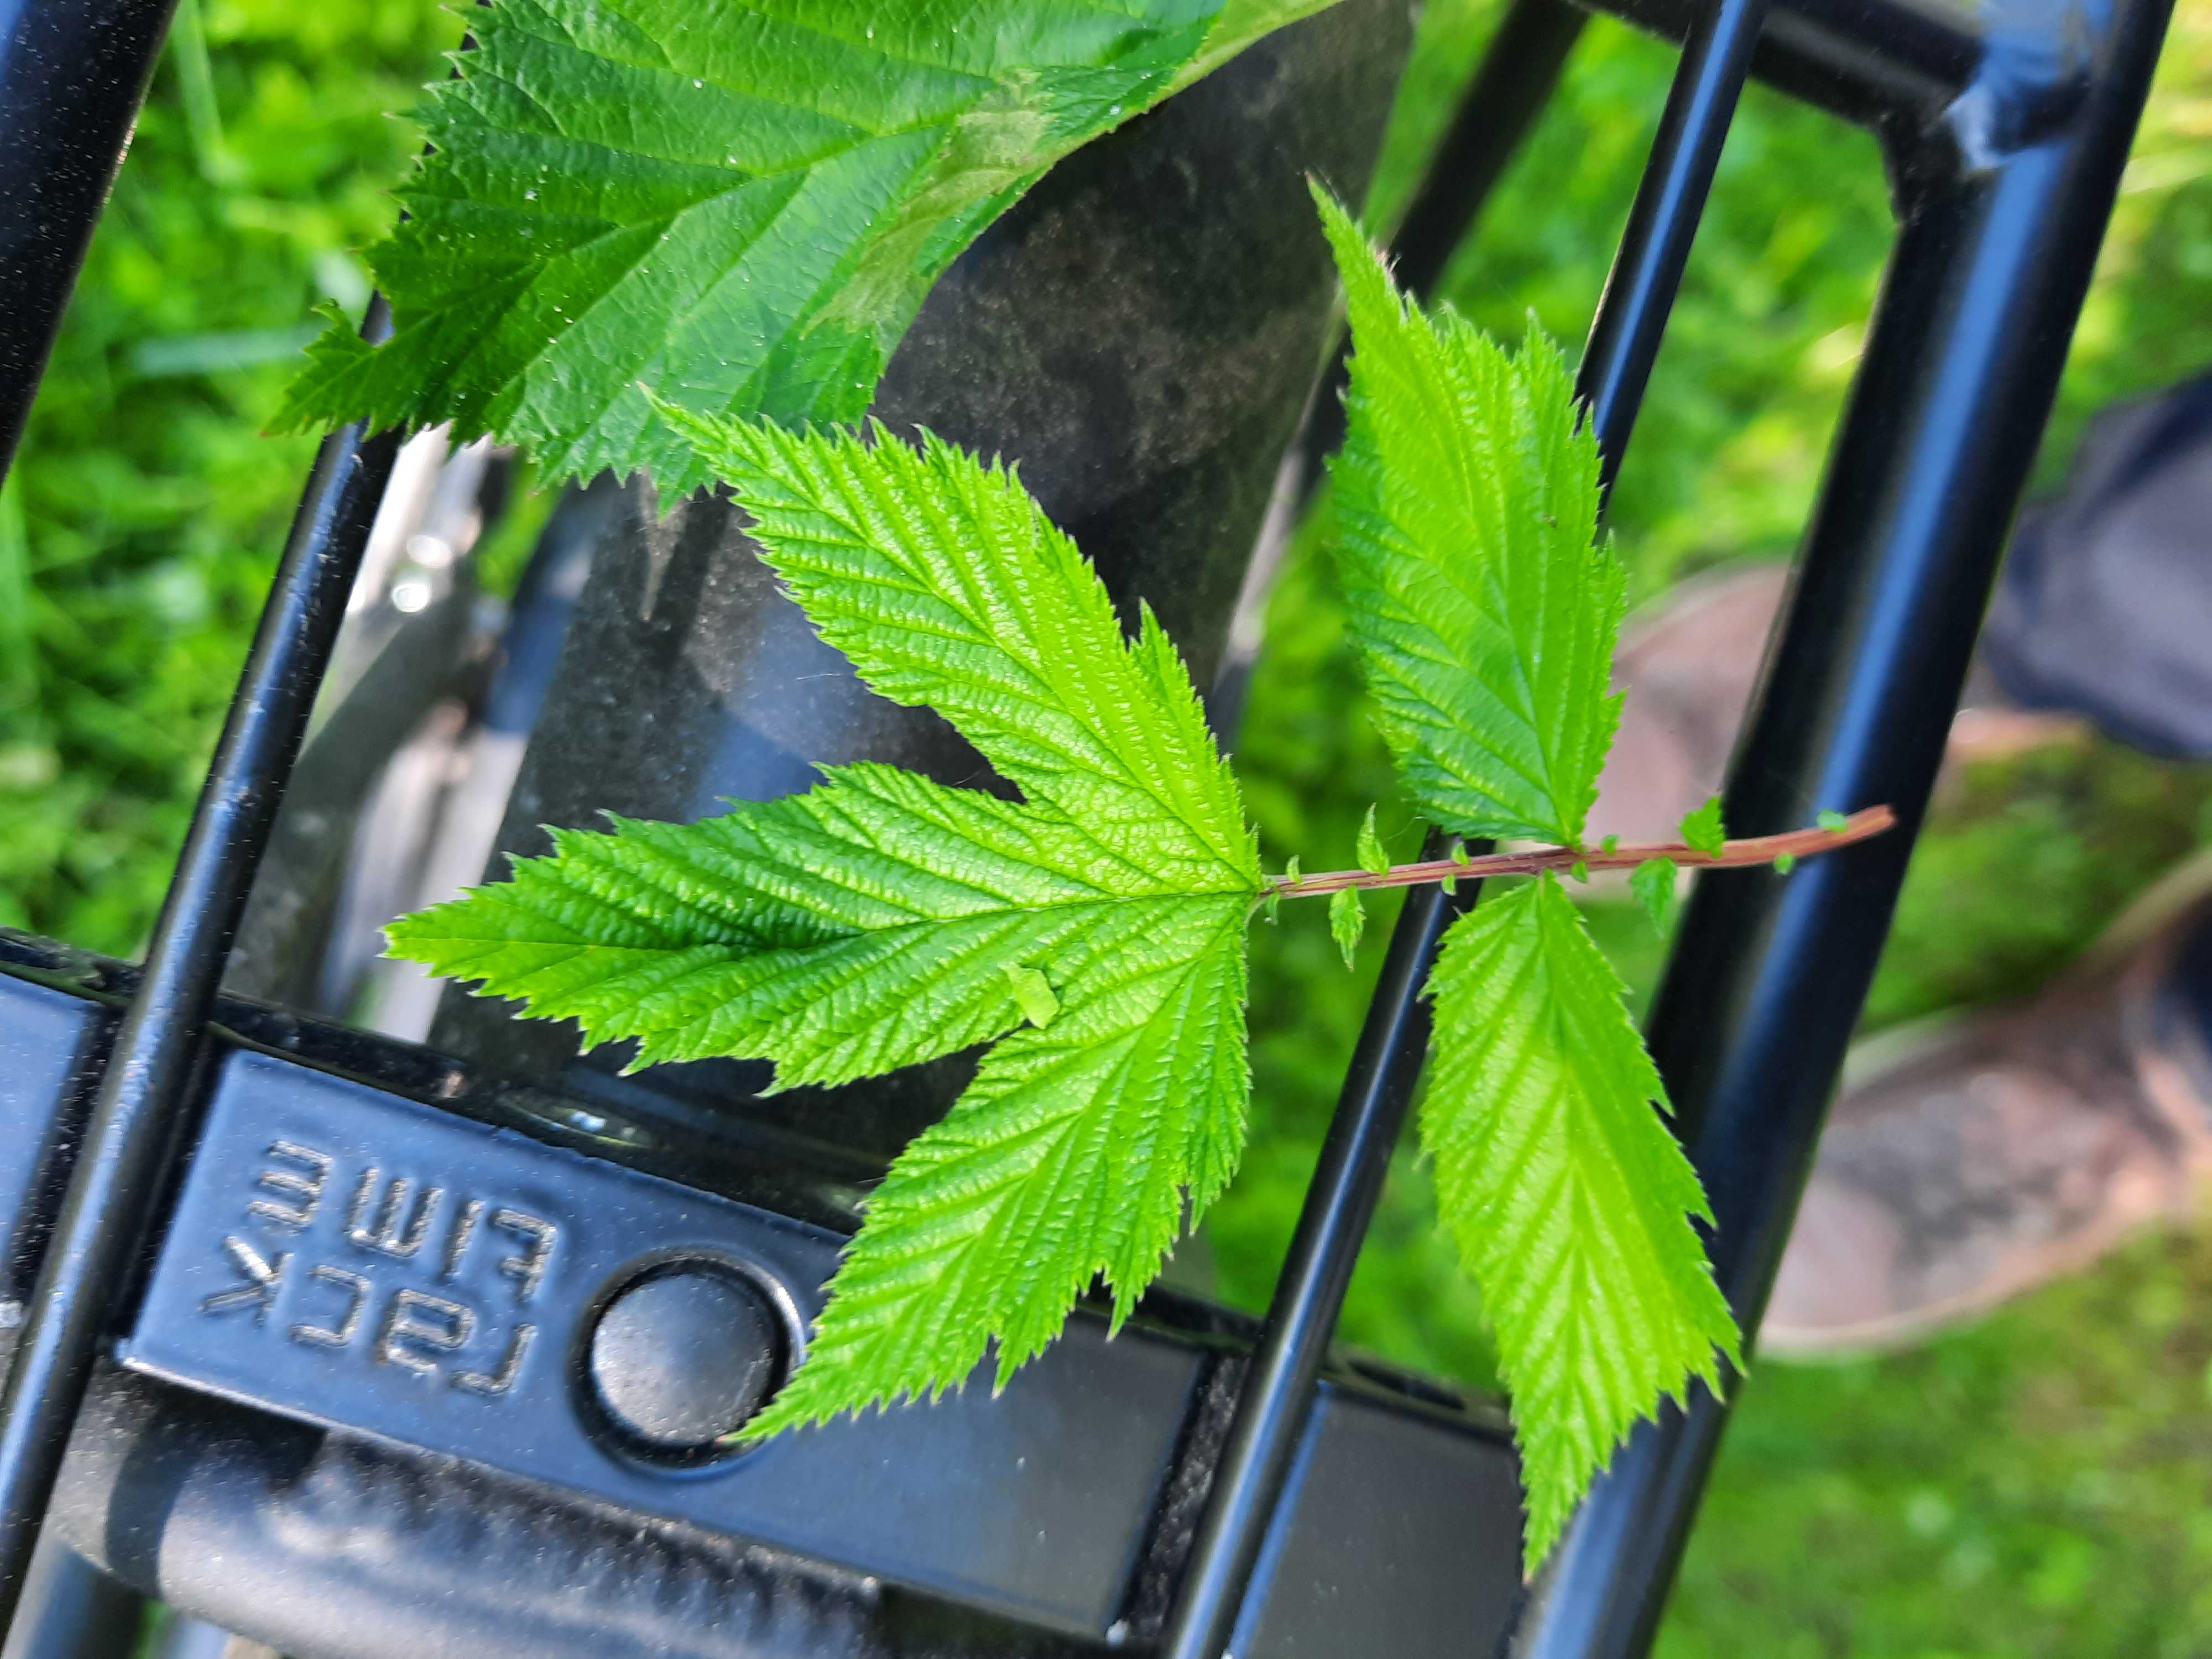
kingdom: Fungi
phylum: Basidiomycota
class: Pucciniomycetes
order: Pucciniales
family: Raveneliaceae
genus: Triphragmium
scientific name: Triphragmium ulmariae
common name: almindelig mjødurtrust
